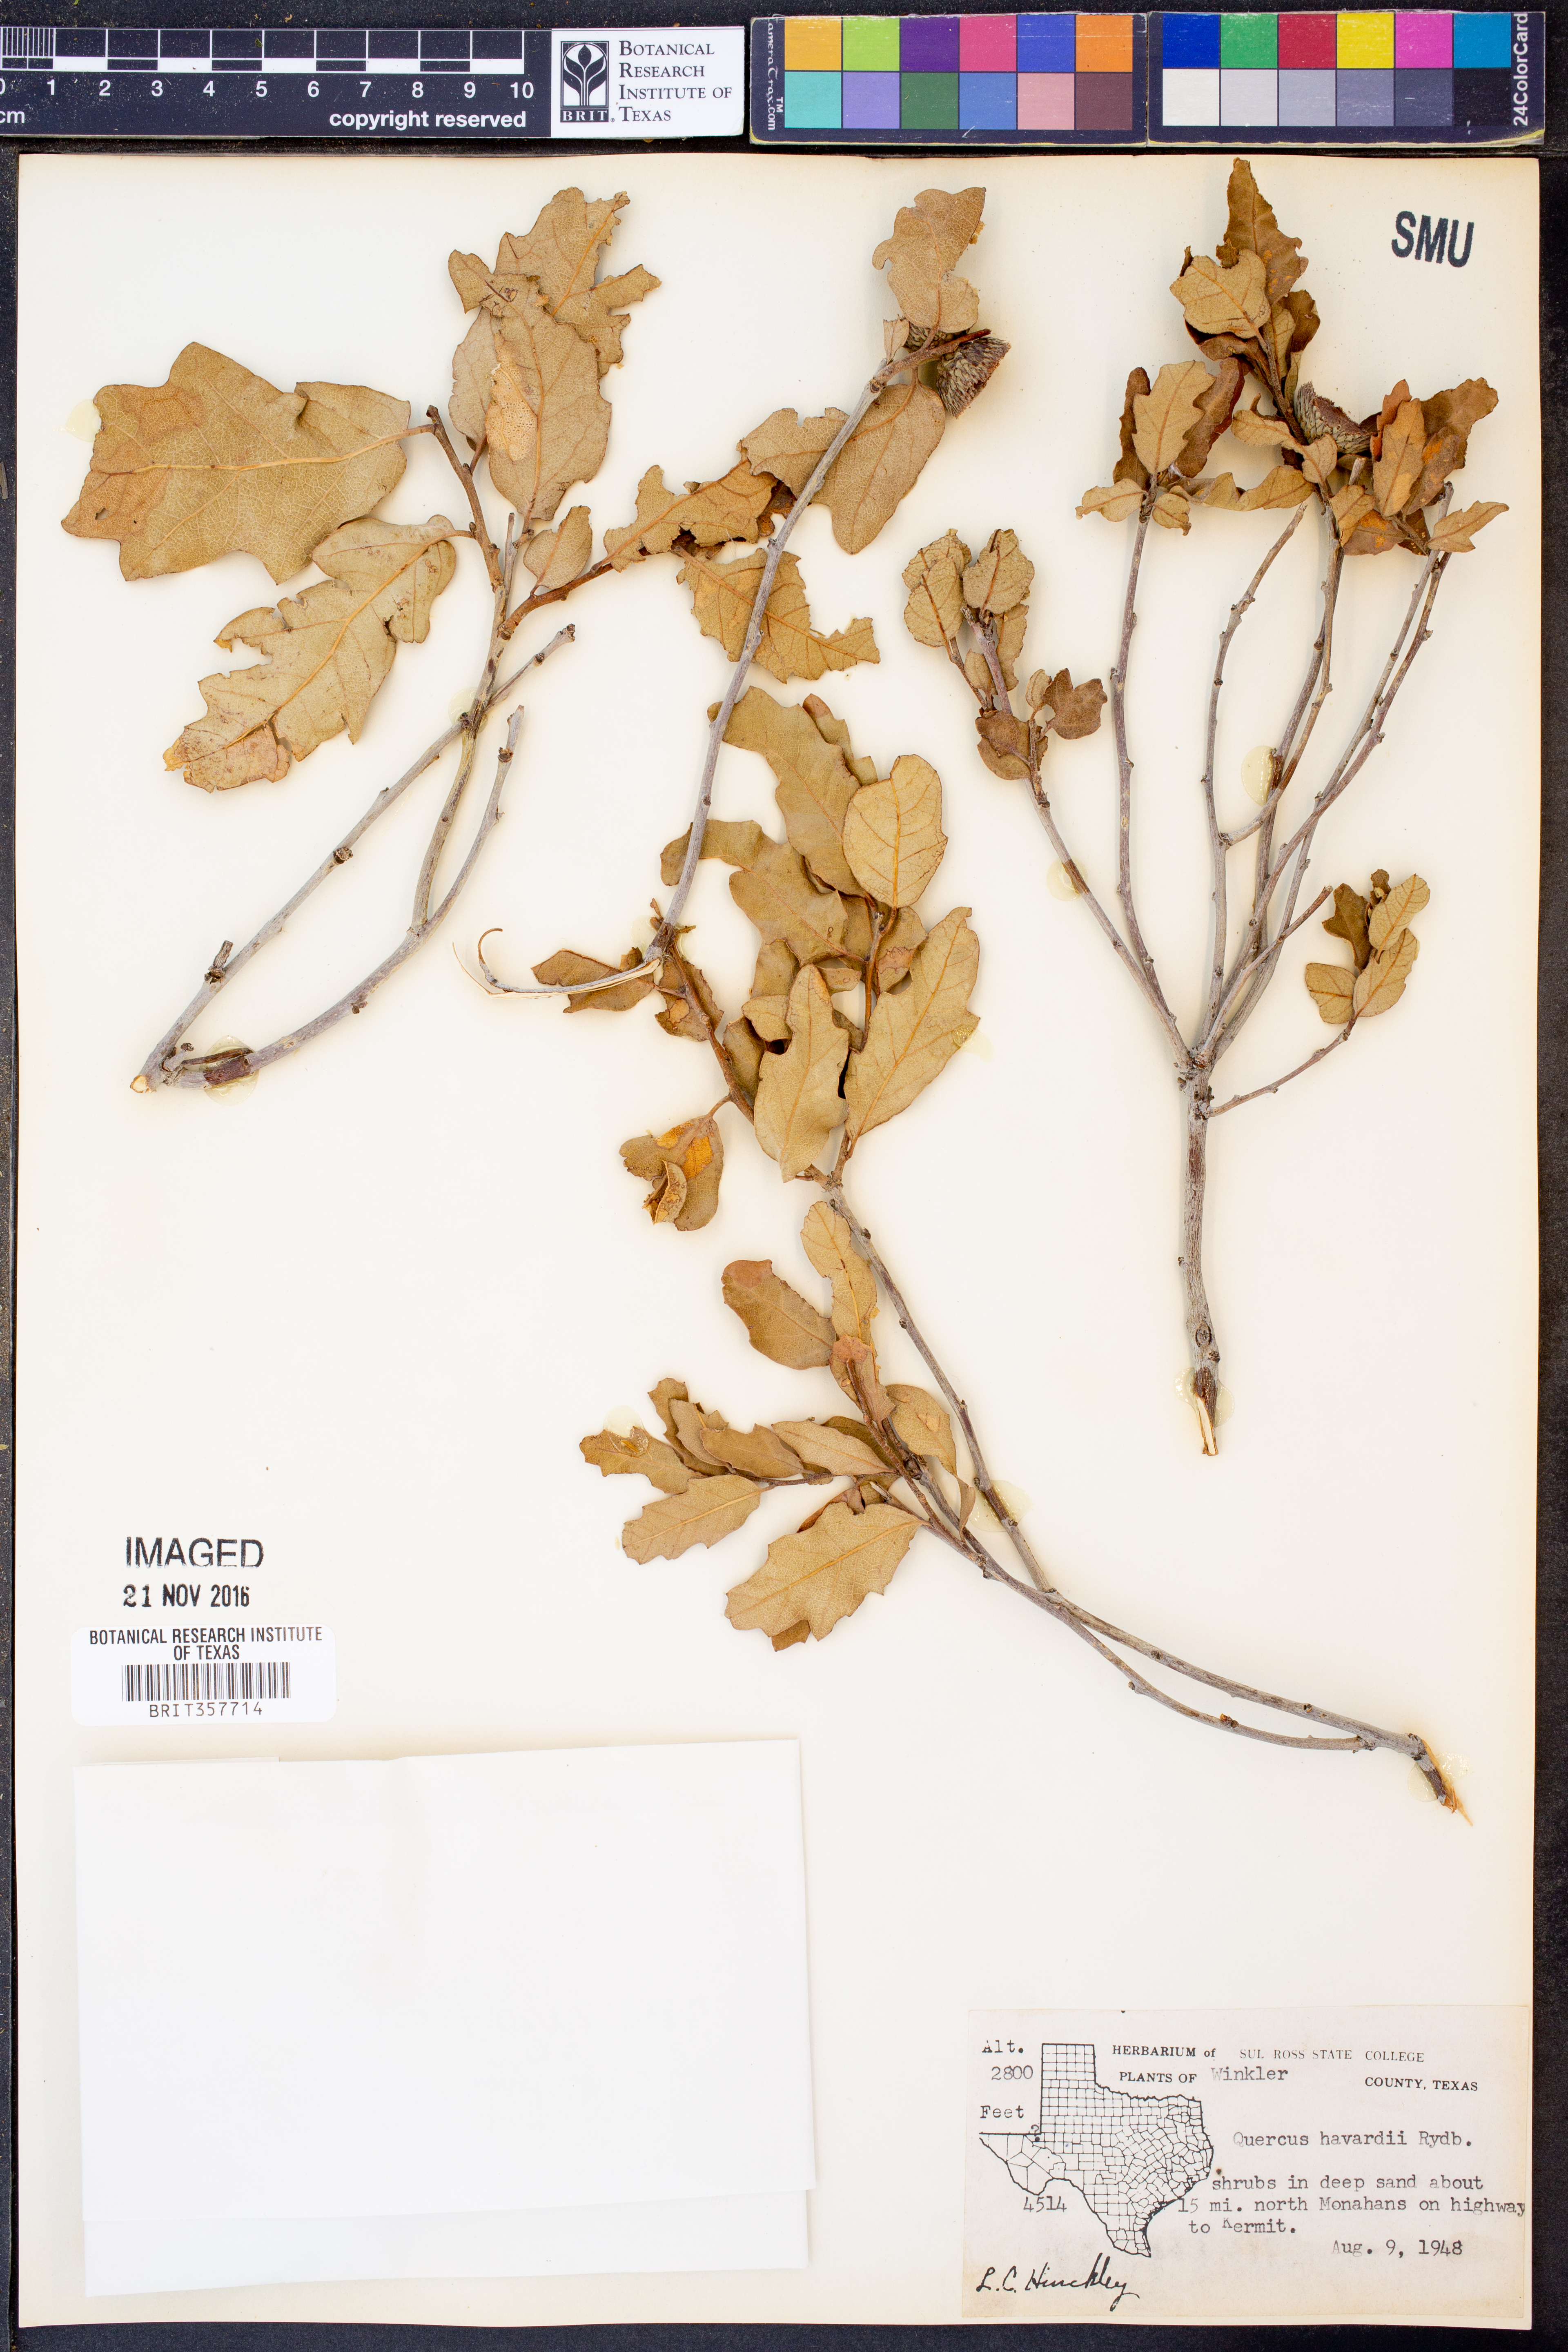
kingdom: Plantae
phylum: Tracheophyta
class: Magnoliopsida
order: Fagales
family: Fagaceae
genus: Quercus
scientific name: Quercus havardii
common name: Shinnery oak
